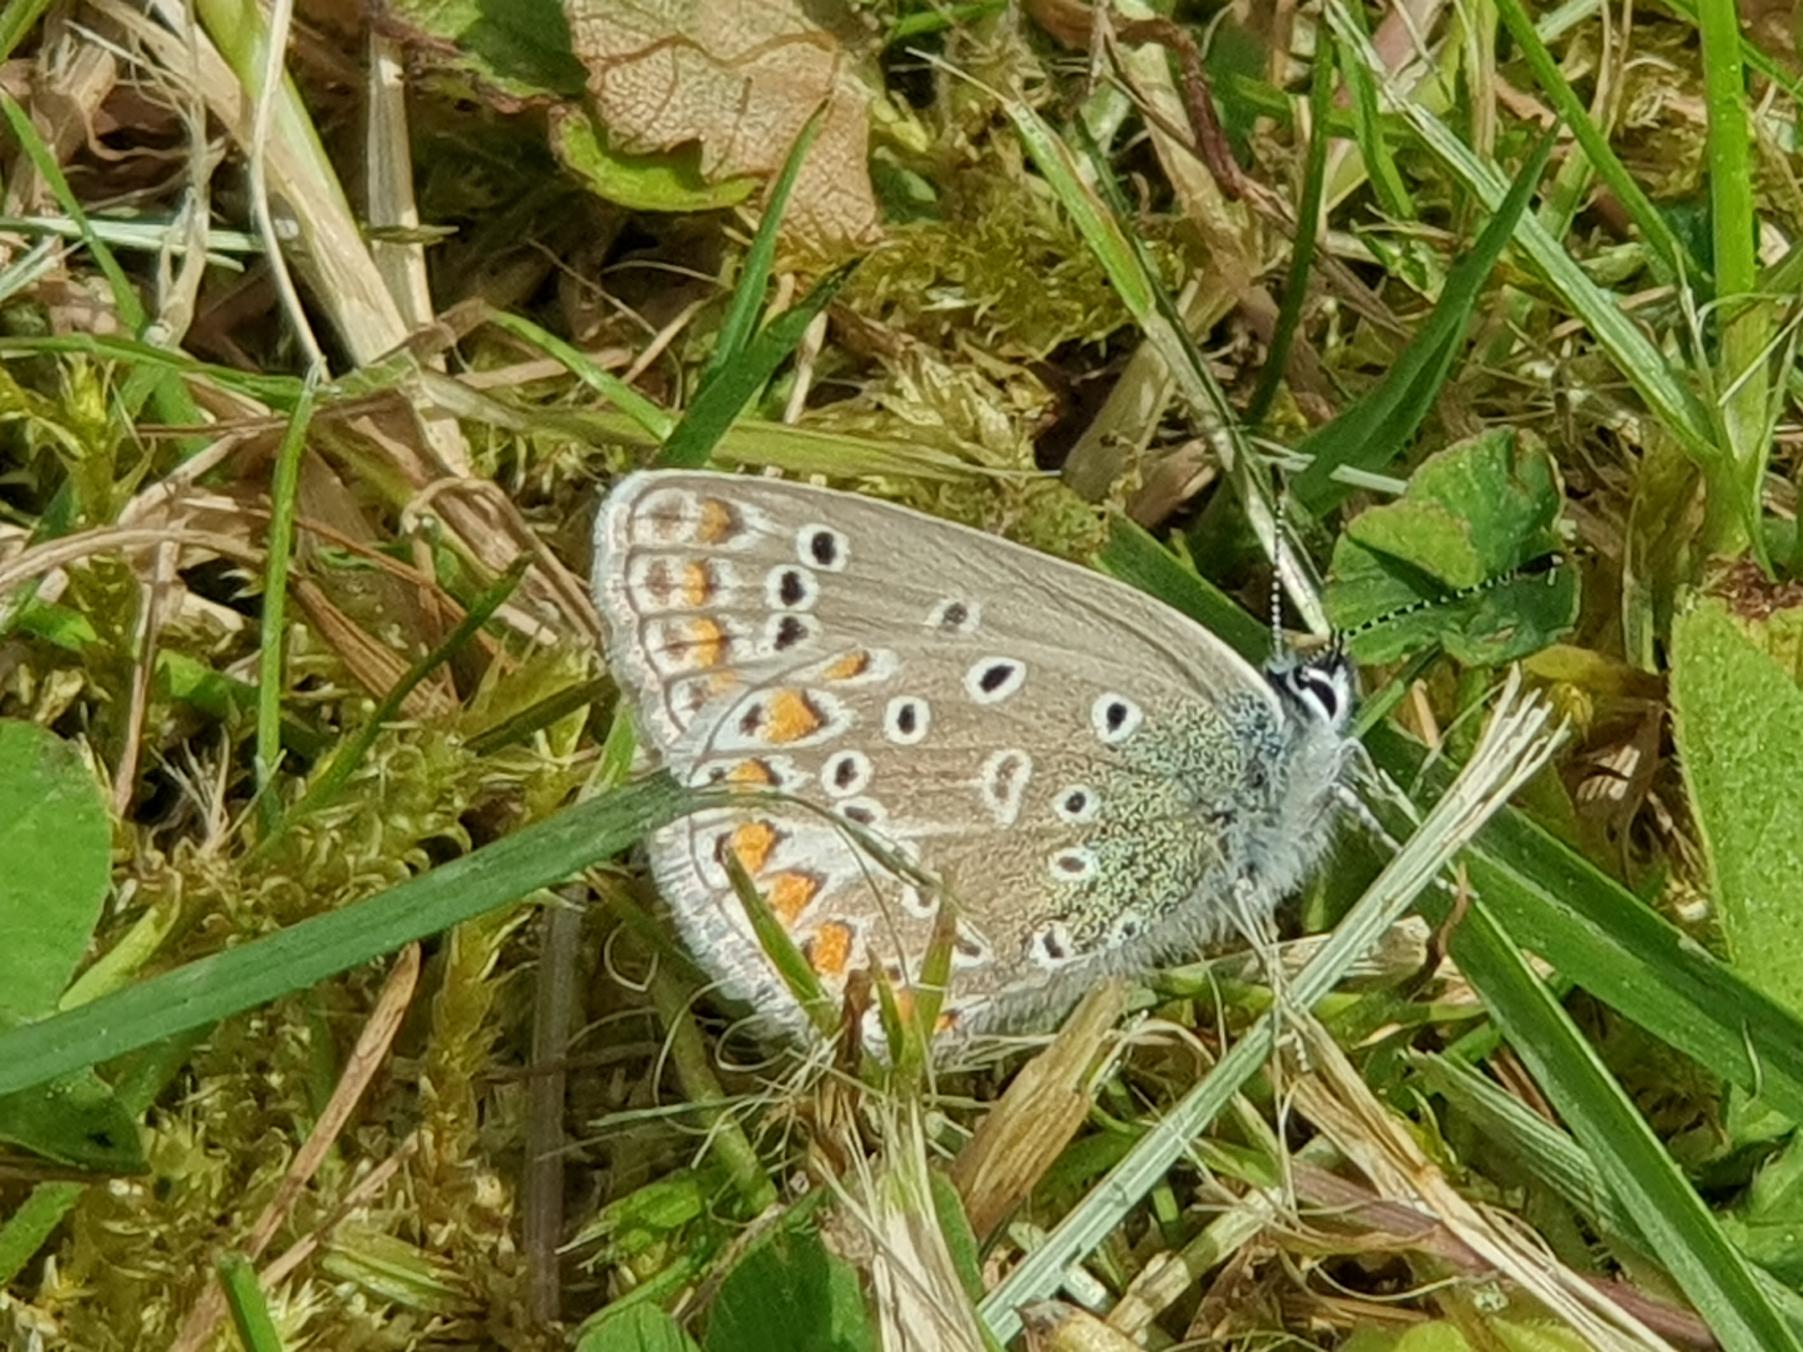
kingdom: Animalia
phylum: Arthropoda
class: Insecta
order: Lepidoptera
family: Lycaenidae
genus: Polyommatus
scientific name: Polyommatus icarus
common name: Almindelig blåfugl
